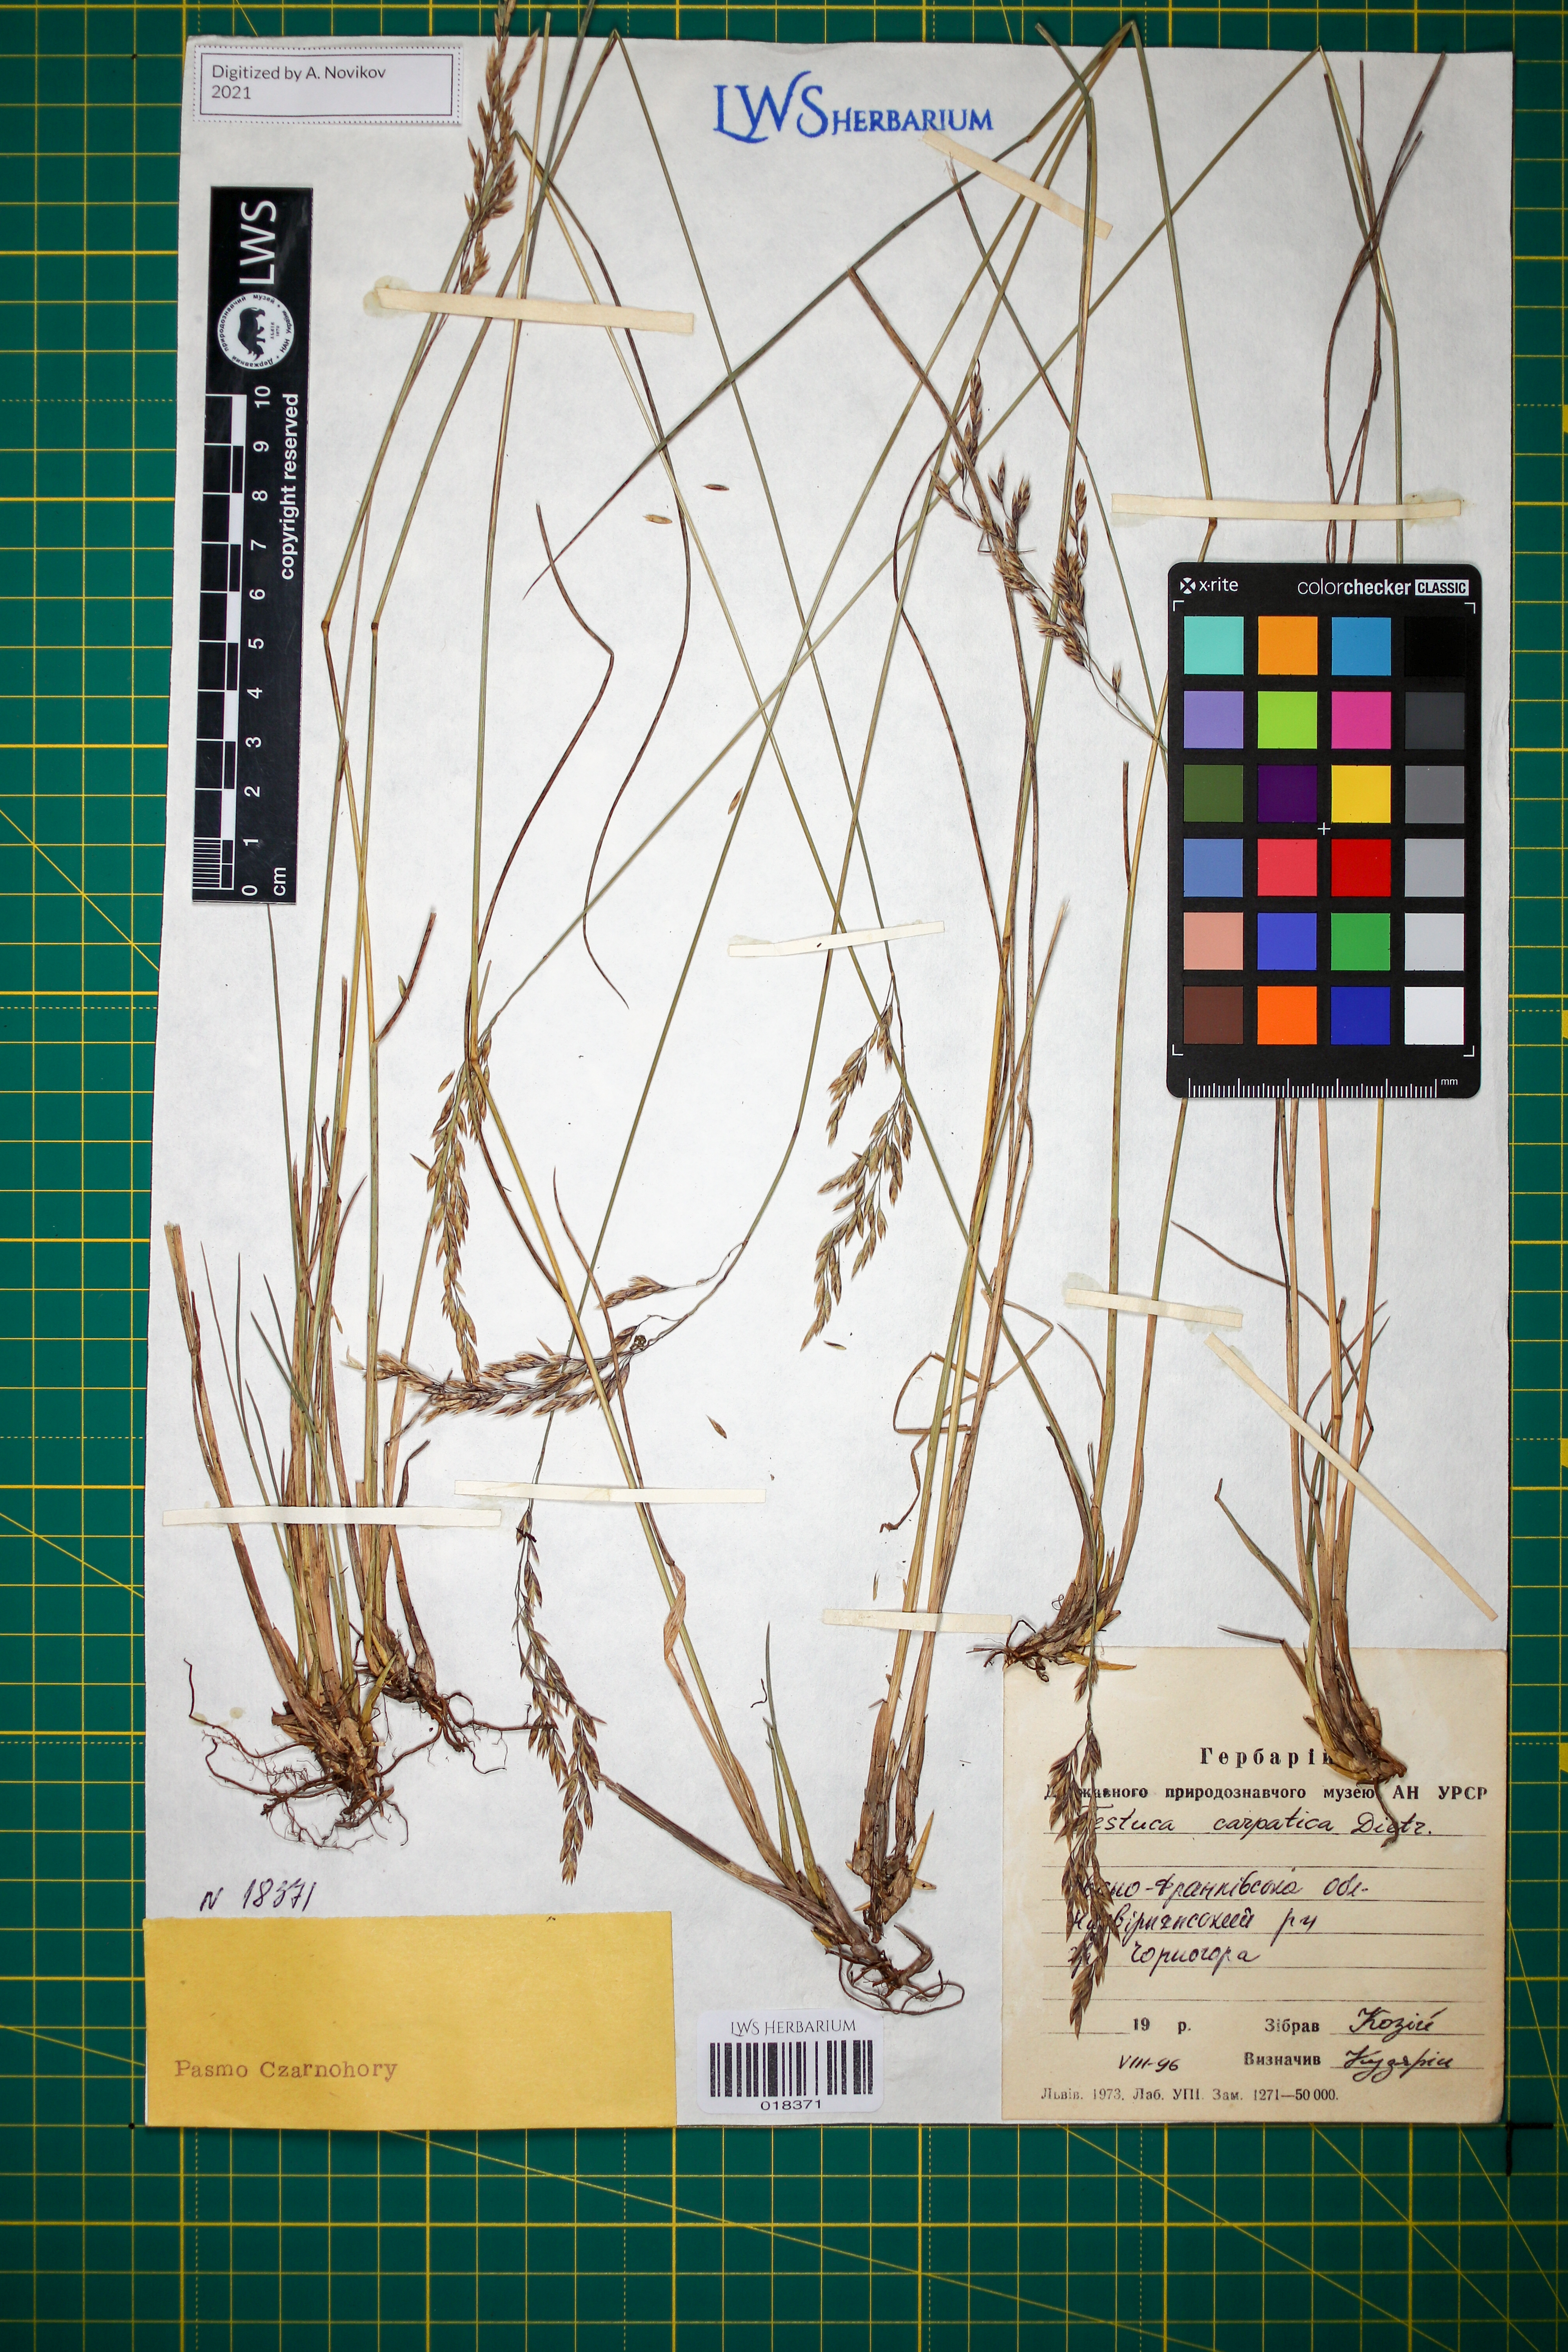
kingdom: Plantae
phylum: Tracheophyta
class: Liliopsida
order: Poales
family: Poaceae
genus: Festuca
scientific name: Festuca carpatica
